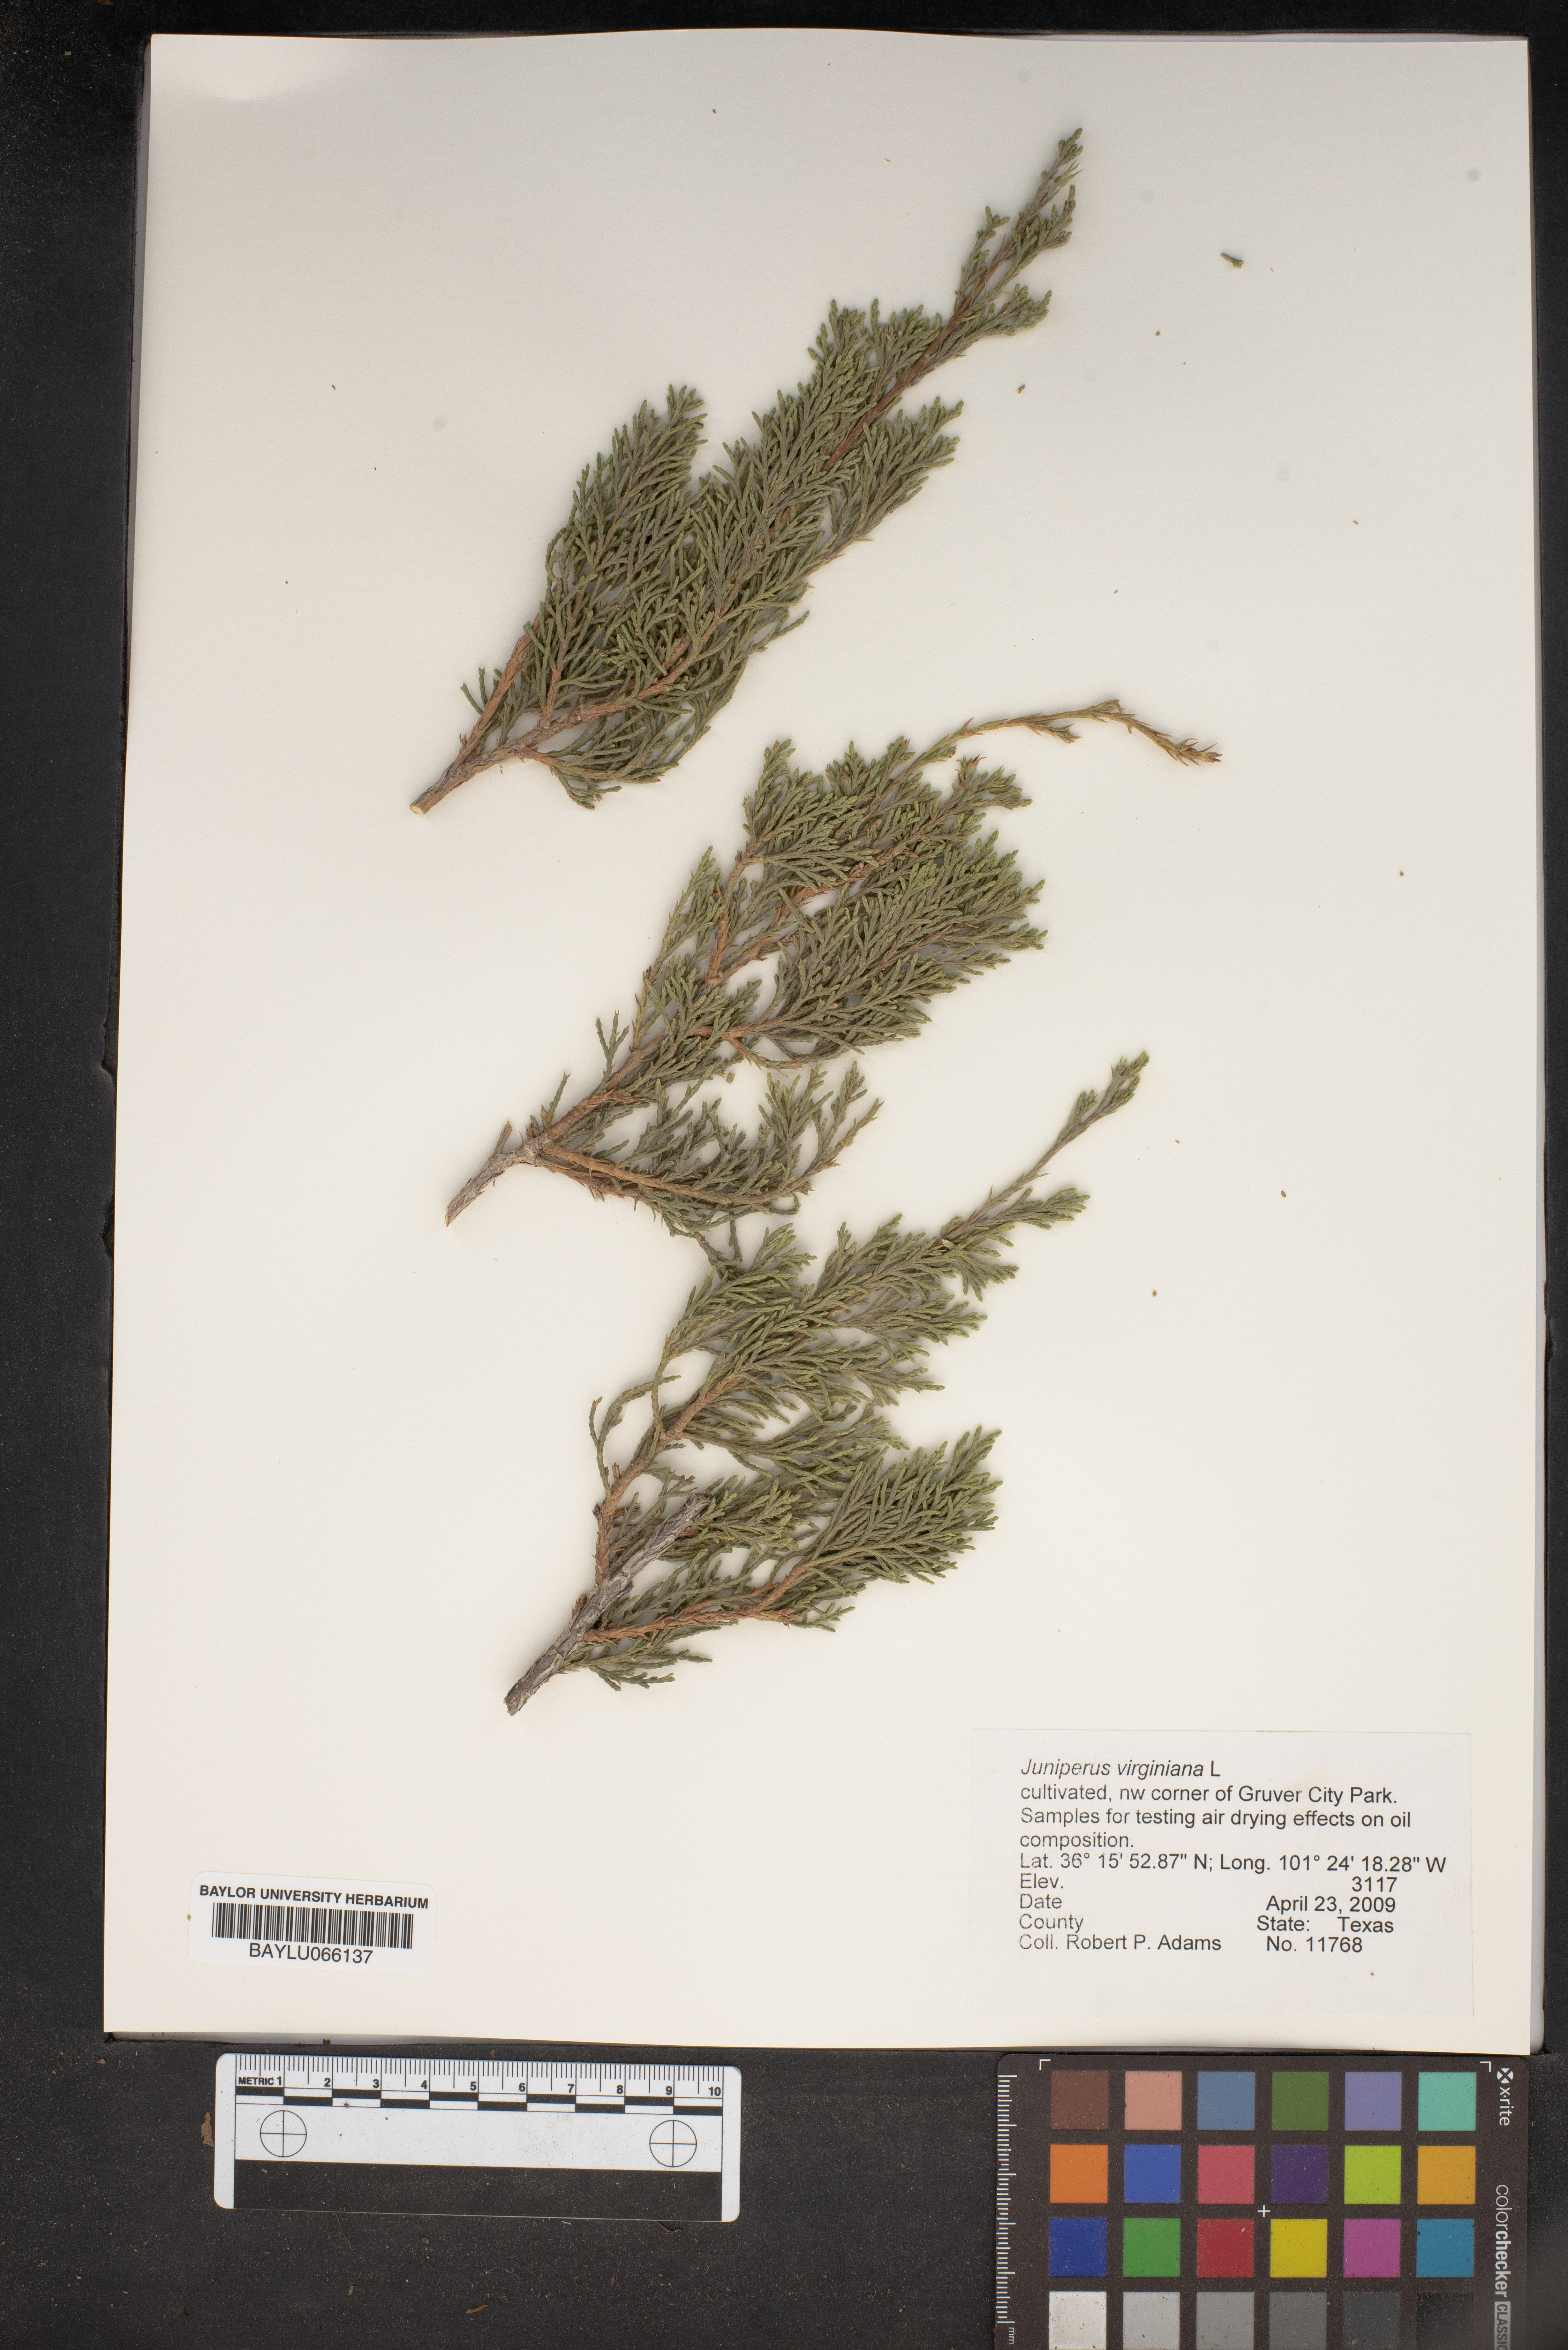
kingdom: Plantae
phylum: Tracheophyta
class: Pinopsida
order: Pinales
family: Cupressaceae
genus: Juniperus
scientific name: Juniperus virginiana
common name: Red juniper
